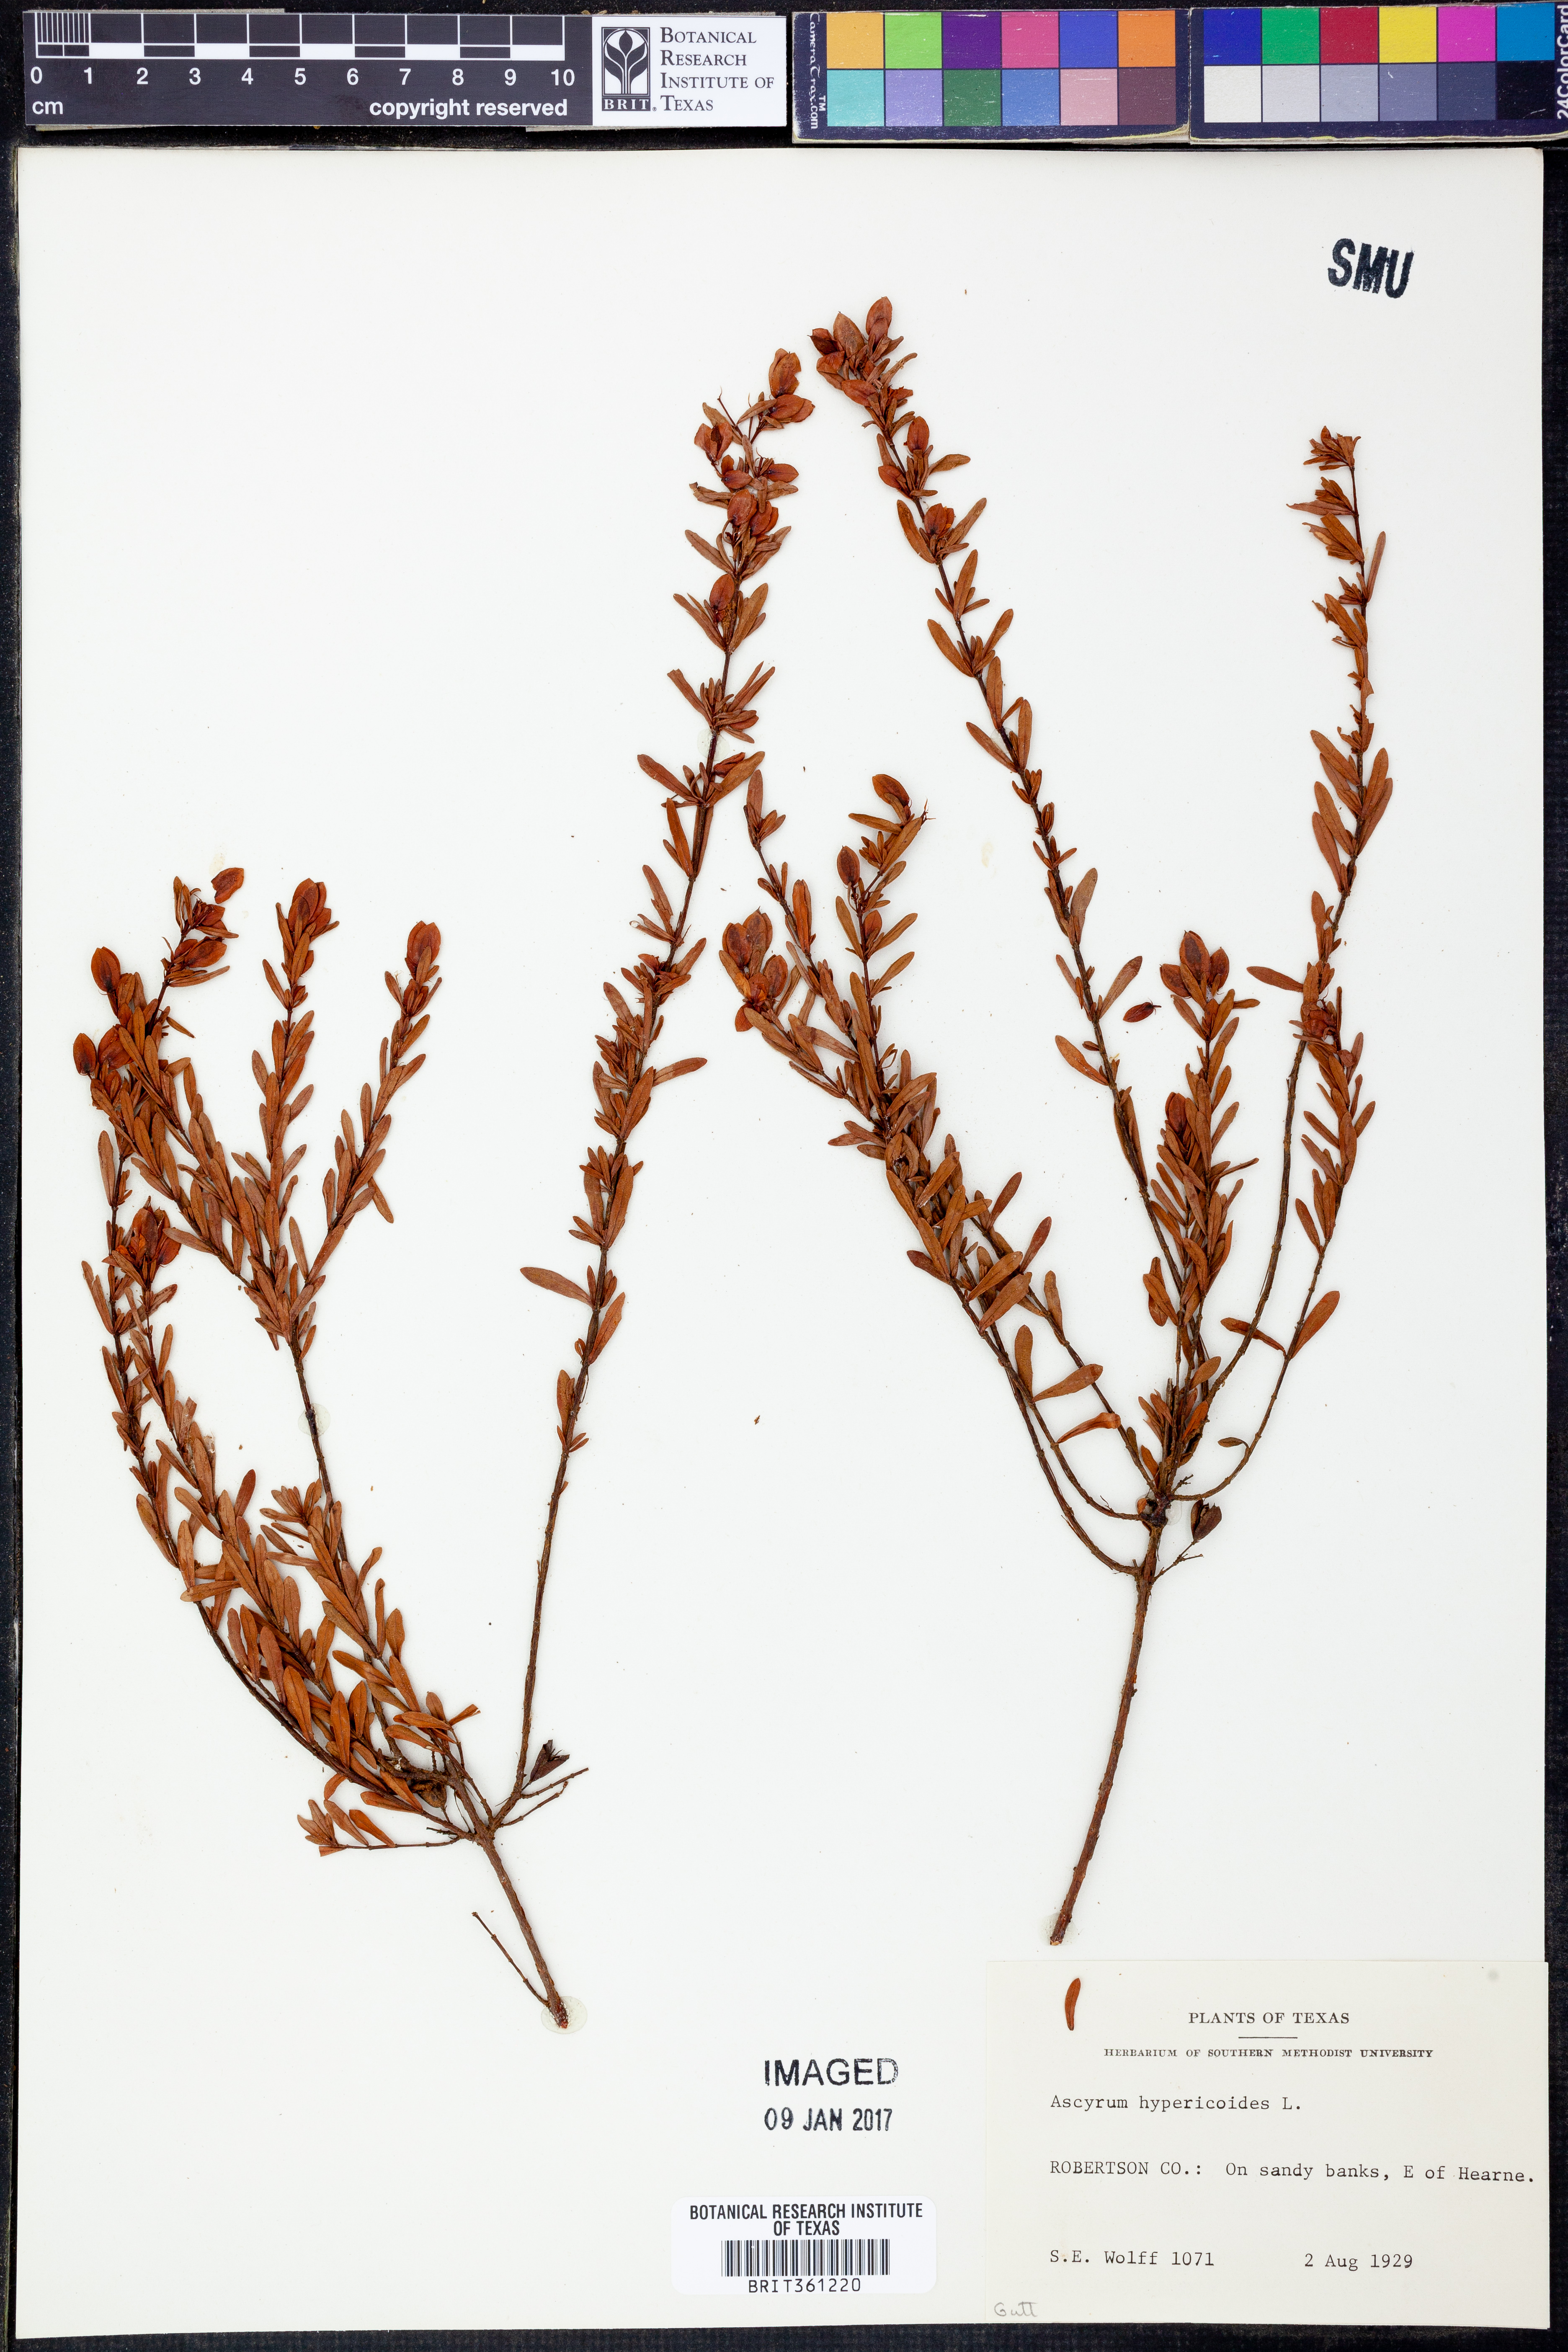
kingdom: Plantae
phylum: Tracheophyta
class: Magnoliopsida
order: Malpighiales
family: Hypericaceae
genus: Hypericum
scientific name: Hypericum hypericoides
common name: St. andrew's cross
